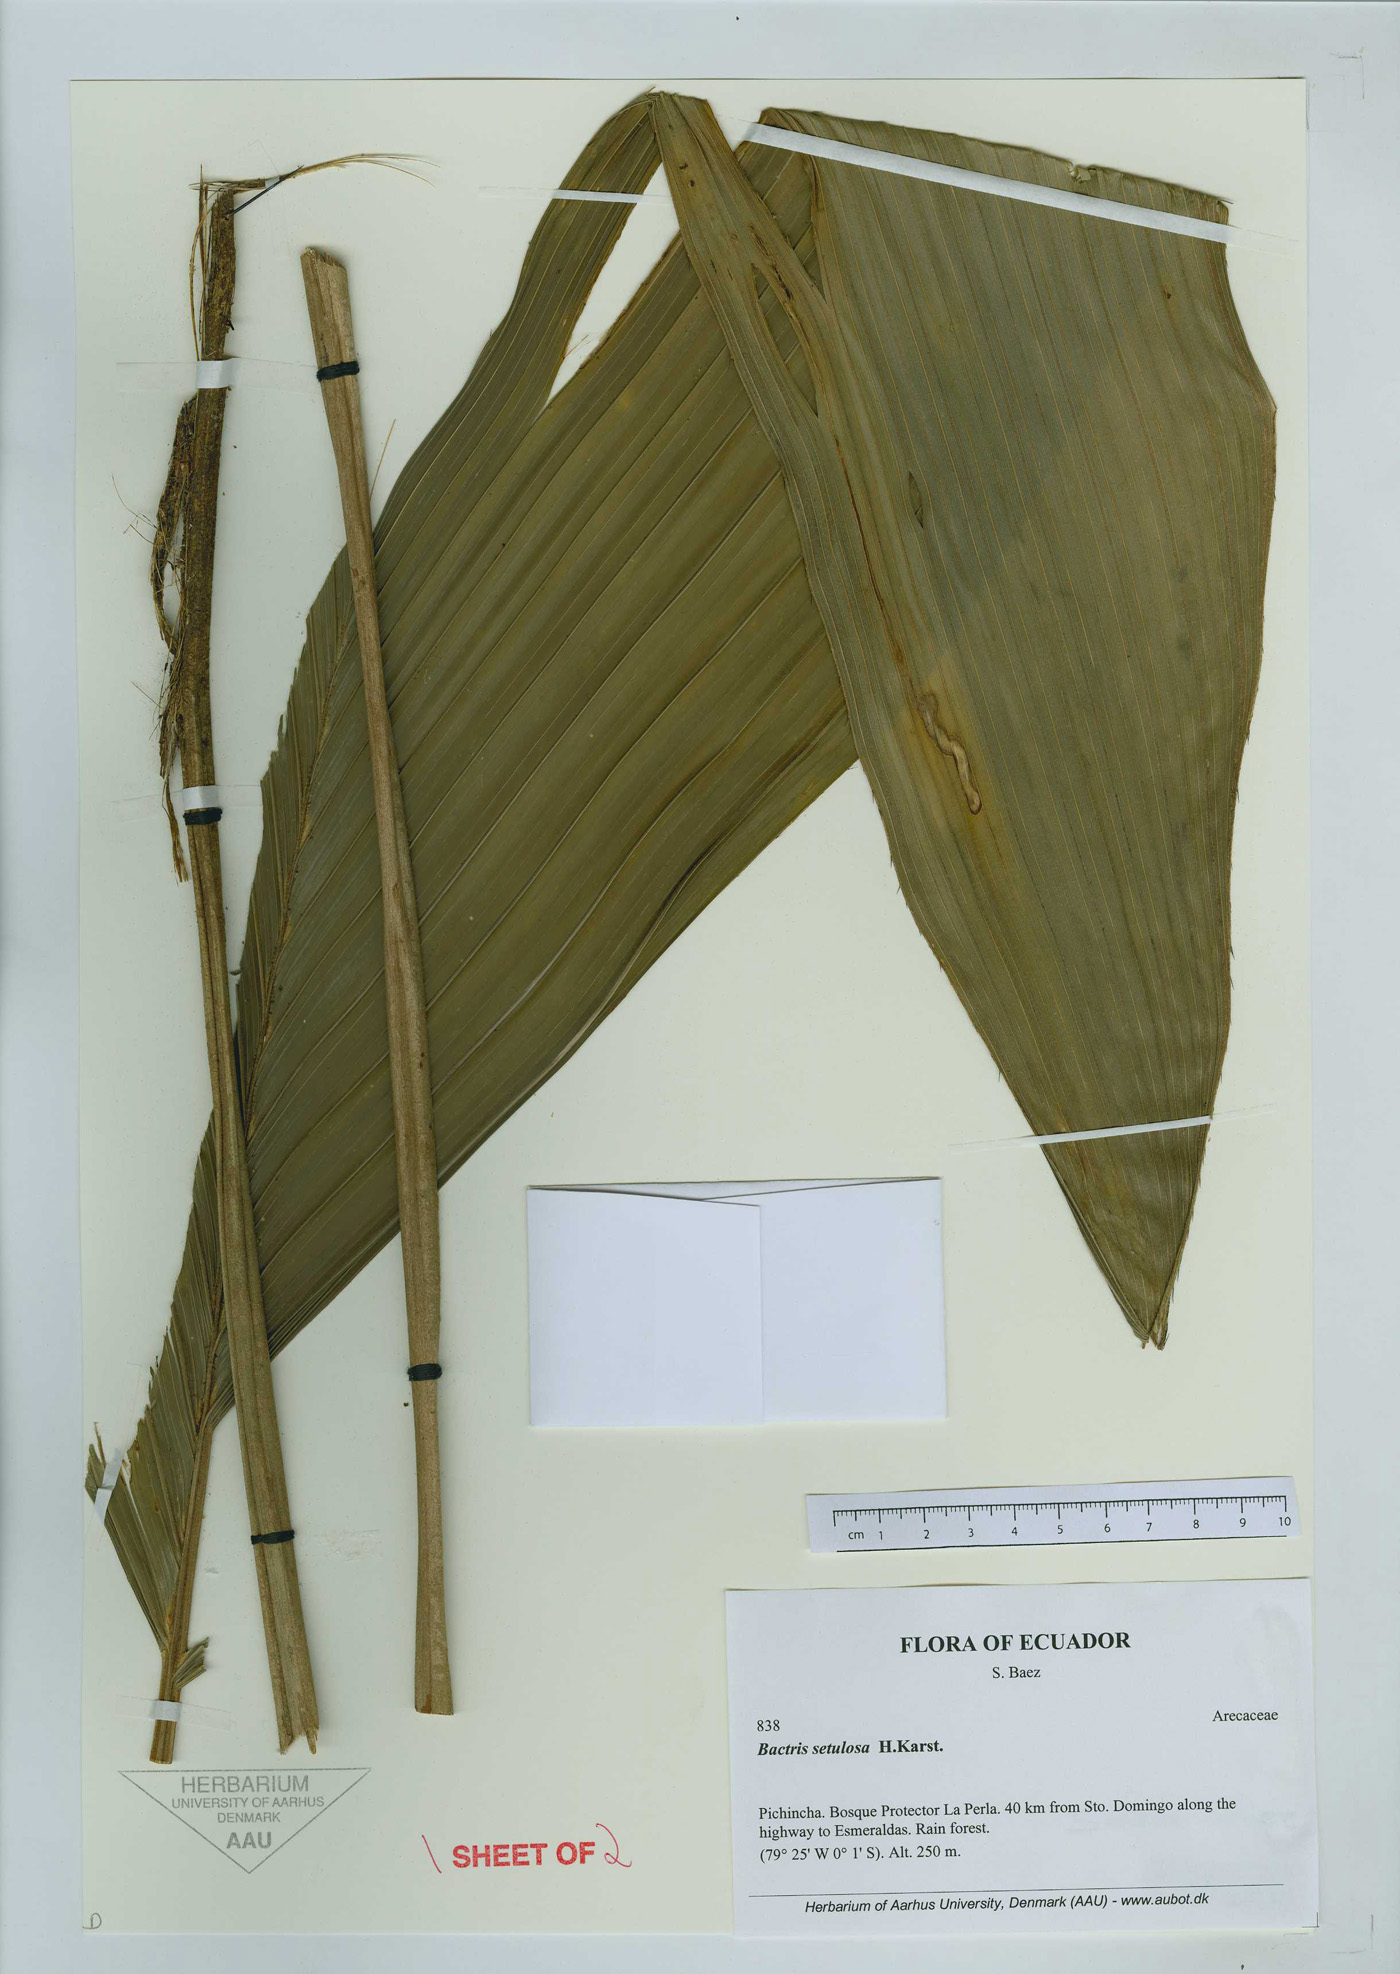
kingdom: Plantae
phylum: Tracheophyta
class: Liliopsida
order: Arecales
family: Arecaceae
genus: Bactris
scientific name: Bactris setulosa
